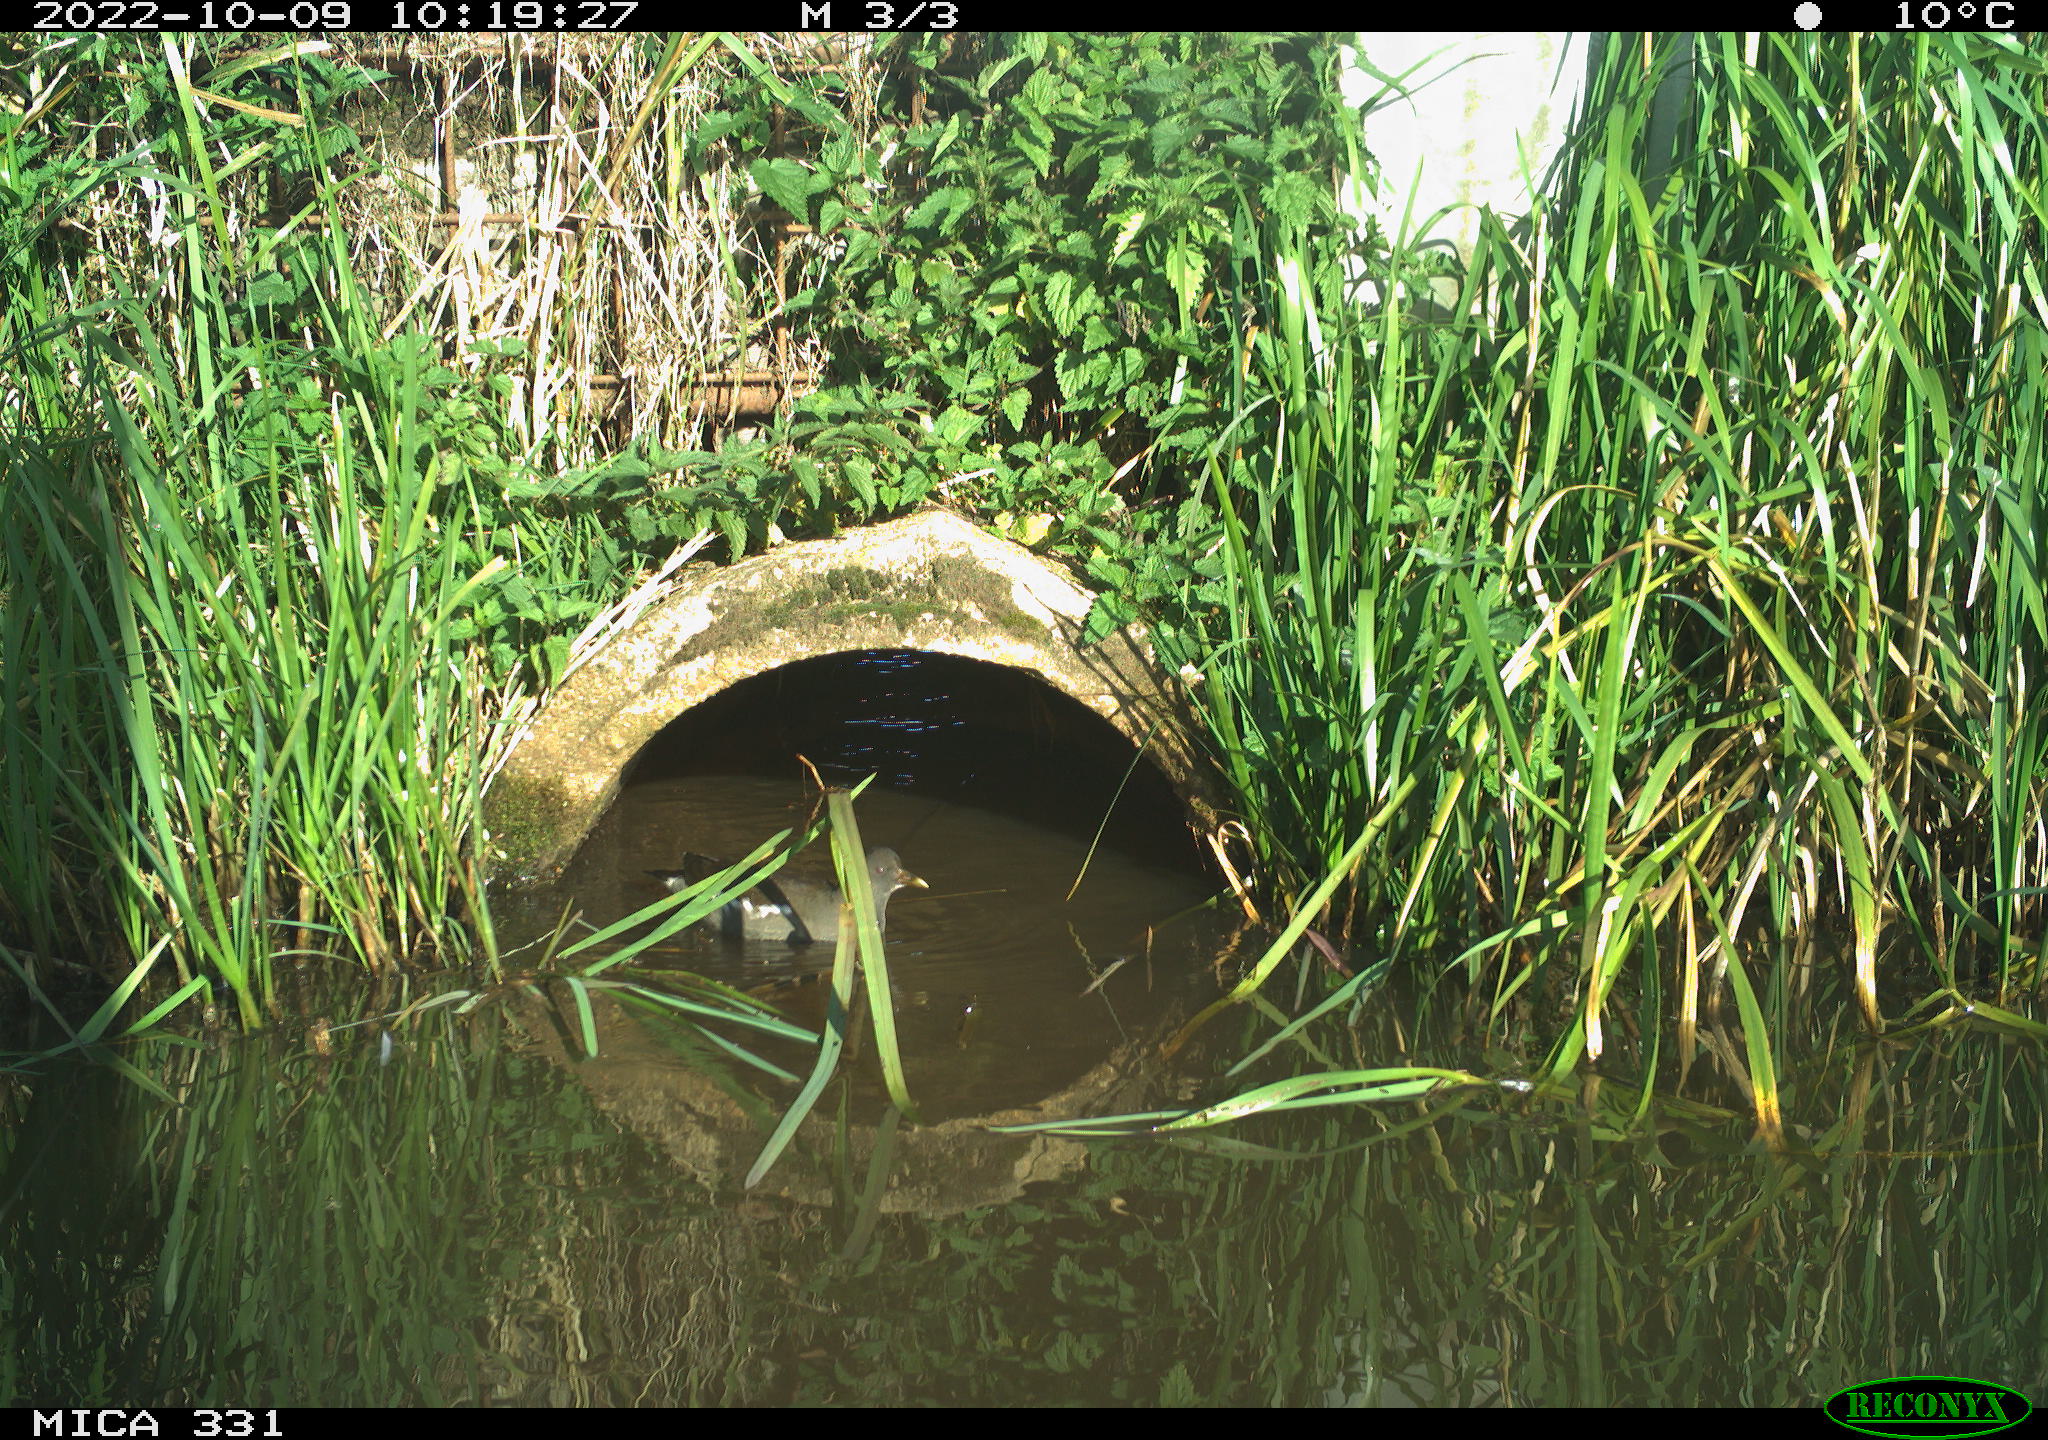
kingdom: Animalia
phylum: Chordata
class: Aves
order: Gruiformes
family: Rallidae
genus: Gallinula
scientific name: Gallinula chloropus
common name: Common moorhen
